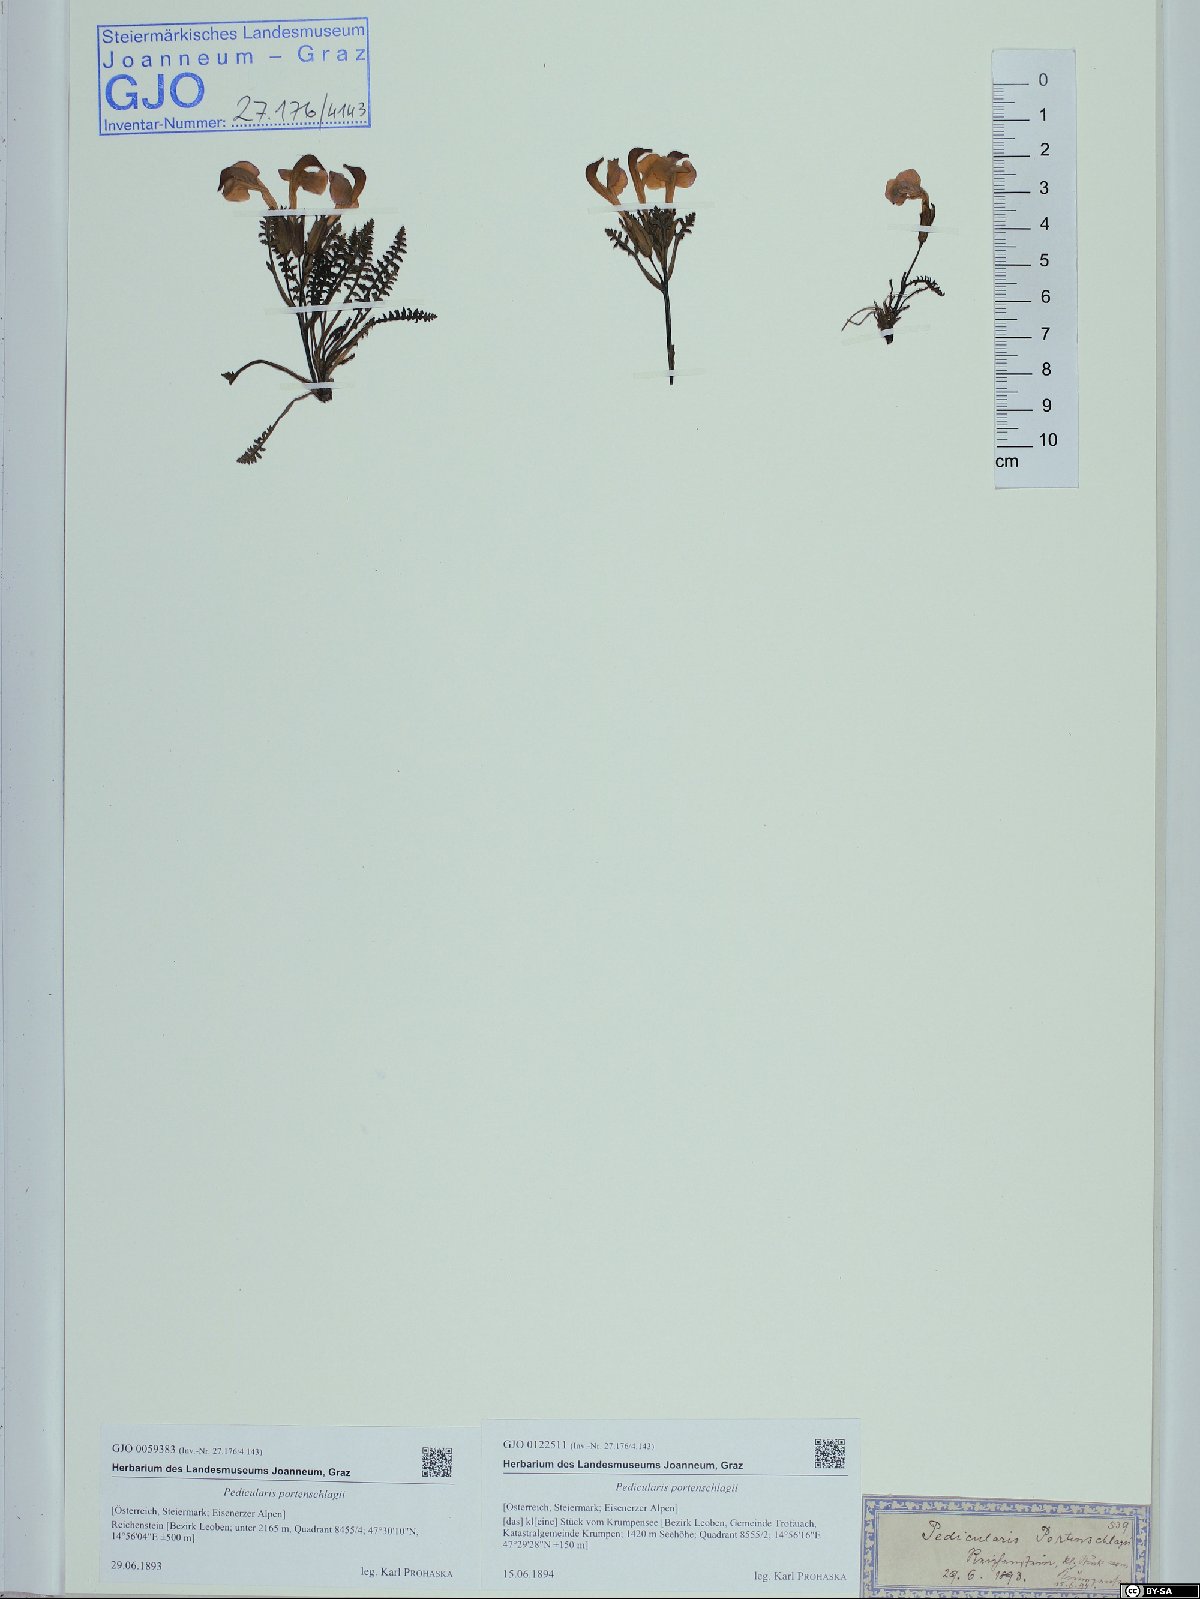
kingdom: Plantae
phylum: Tracheophyta
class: Magnoliopsida
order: Lamiales
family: Orobanchaceae
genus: Pedicularis
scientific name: Pedicularis portenschlagii
